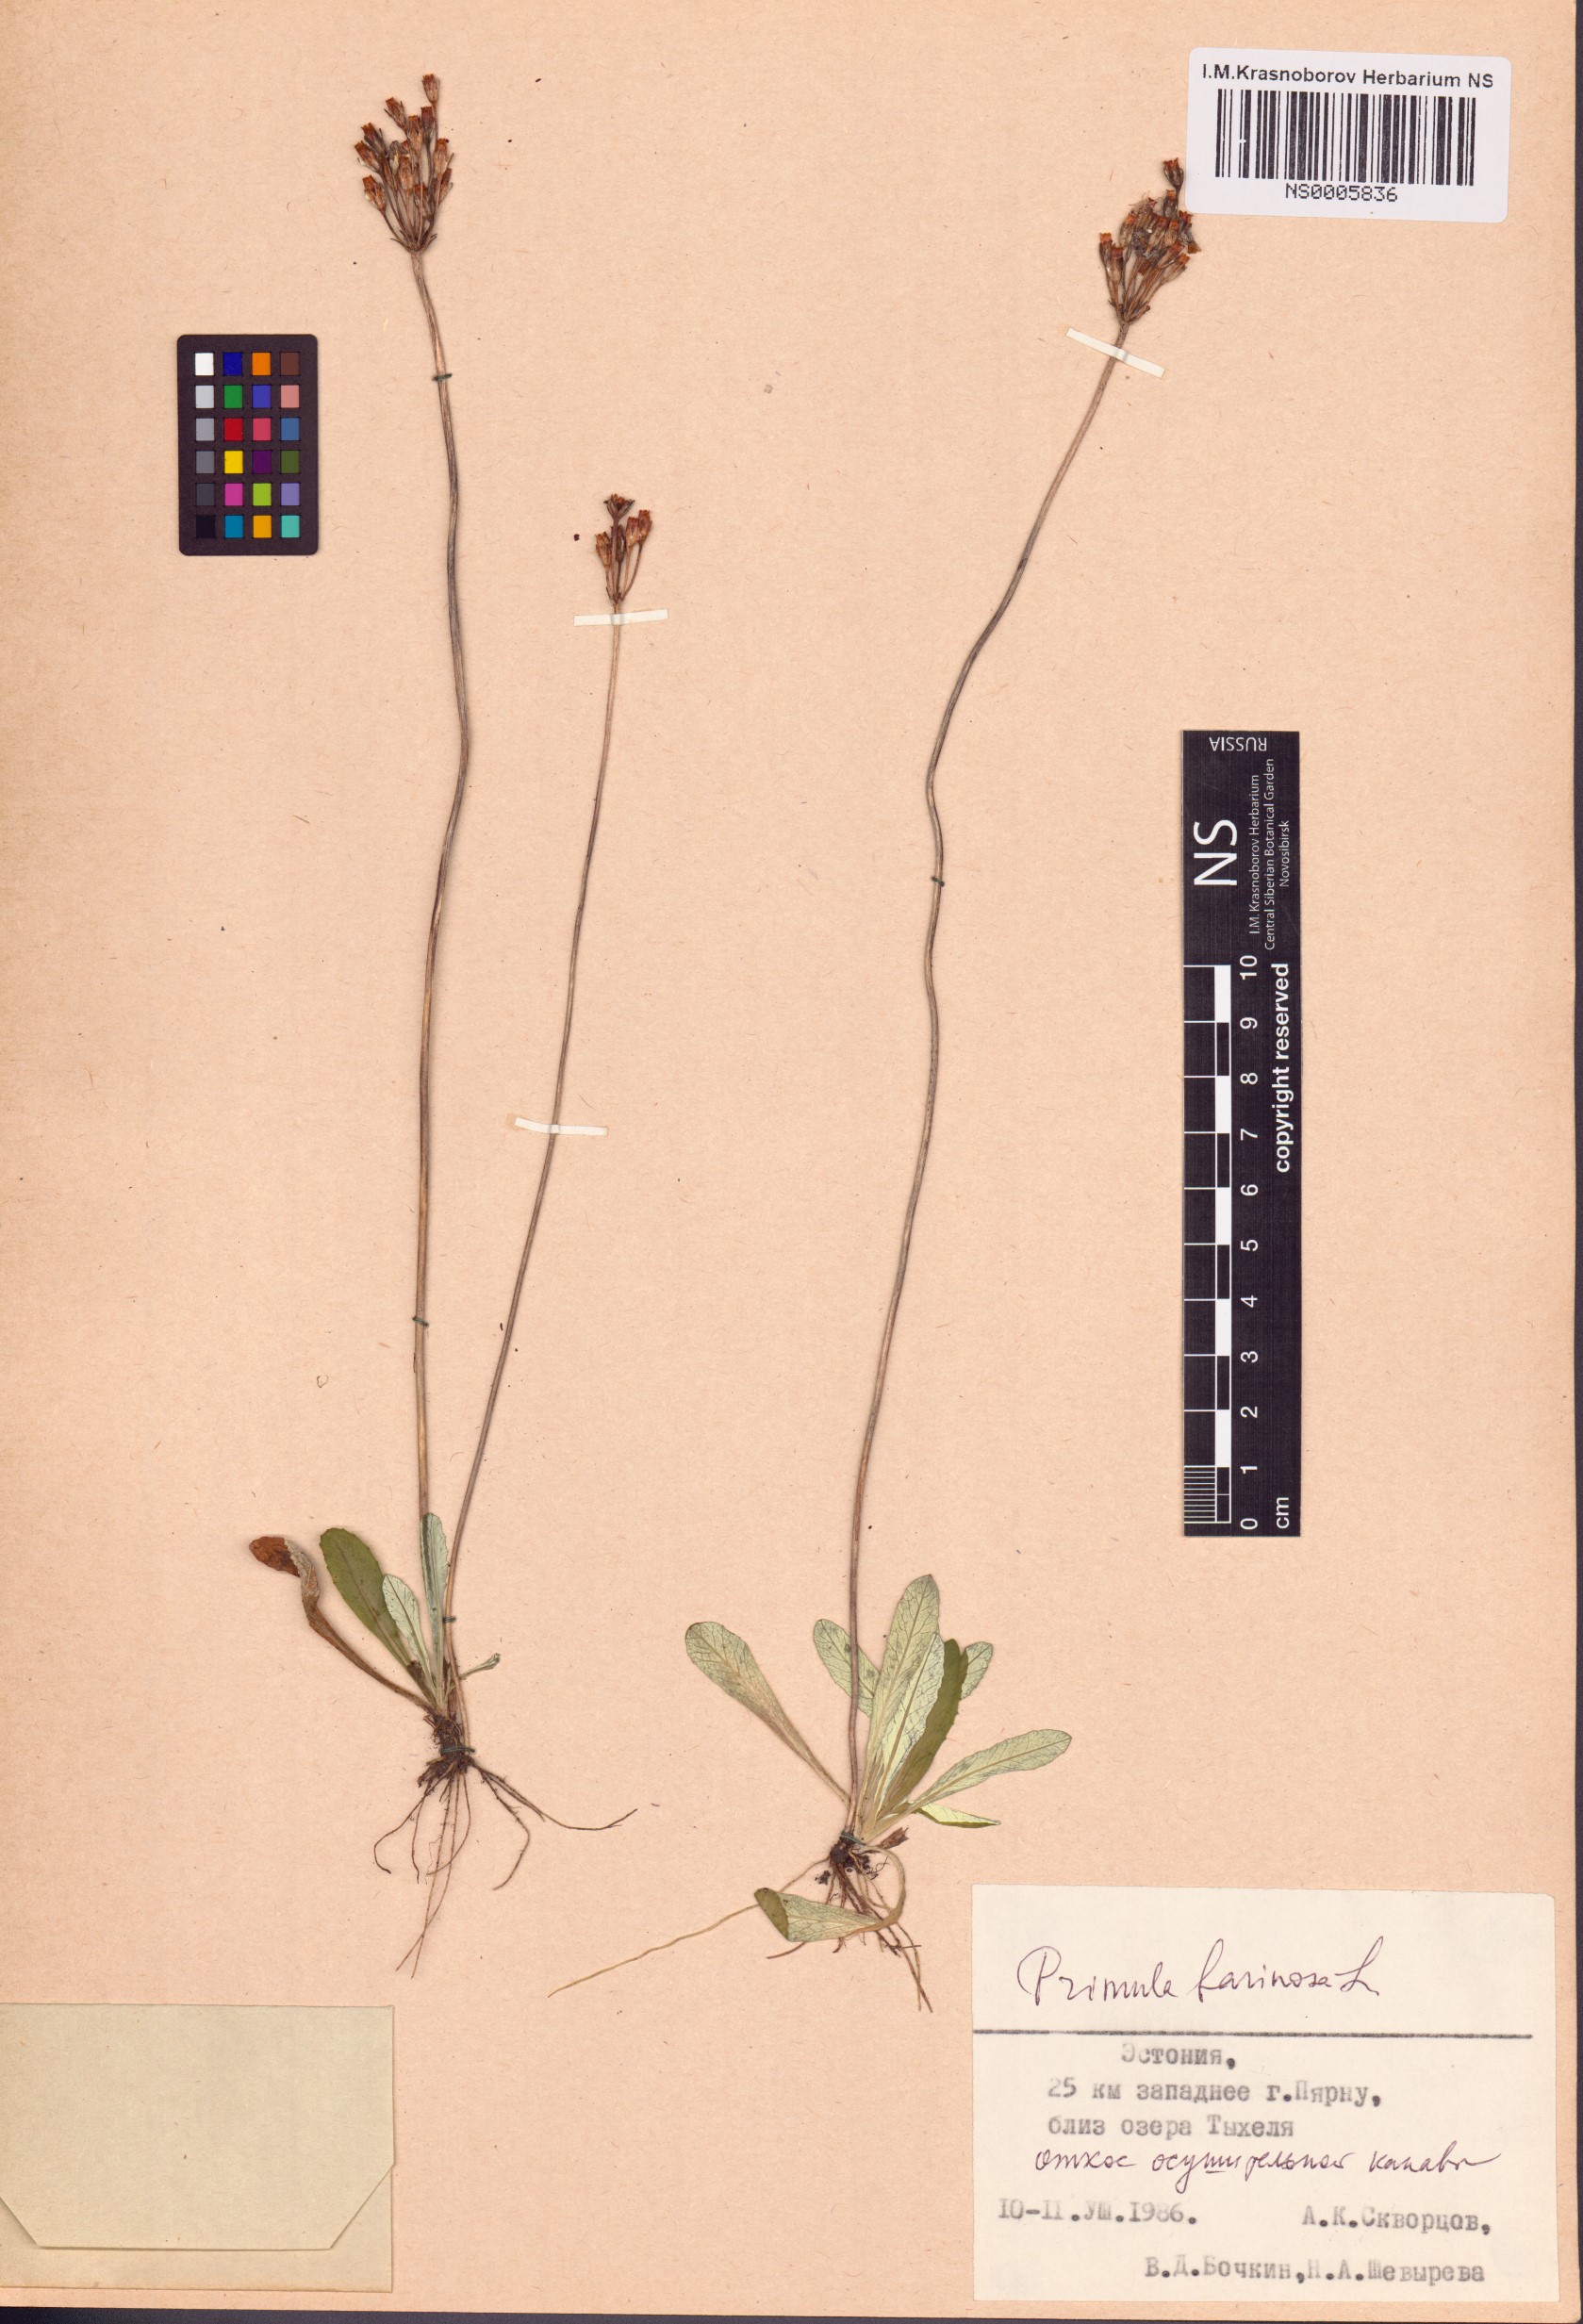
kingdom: Plantae
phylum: Tracheophyta
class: Magnoliopsida
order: Ericales
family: Primulaceae
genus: Primula
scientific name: Primula farinosa
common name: Bird's-eye primrose
